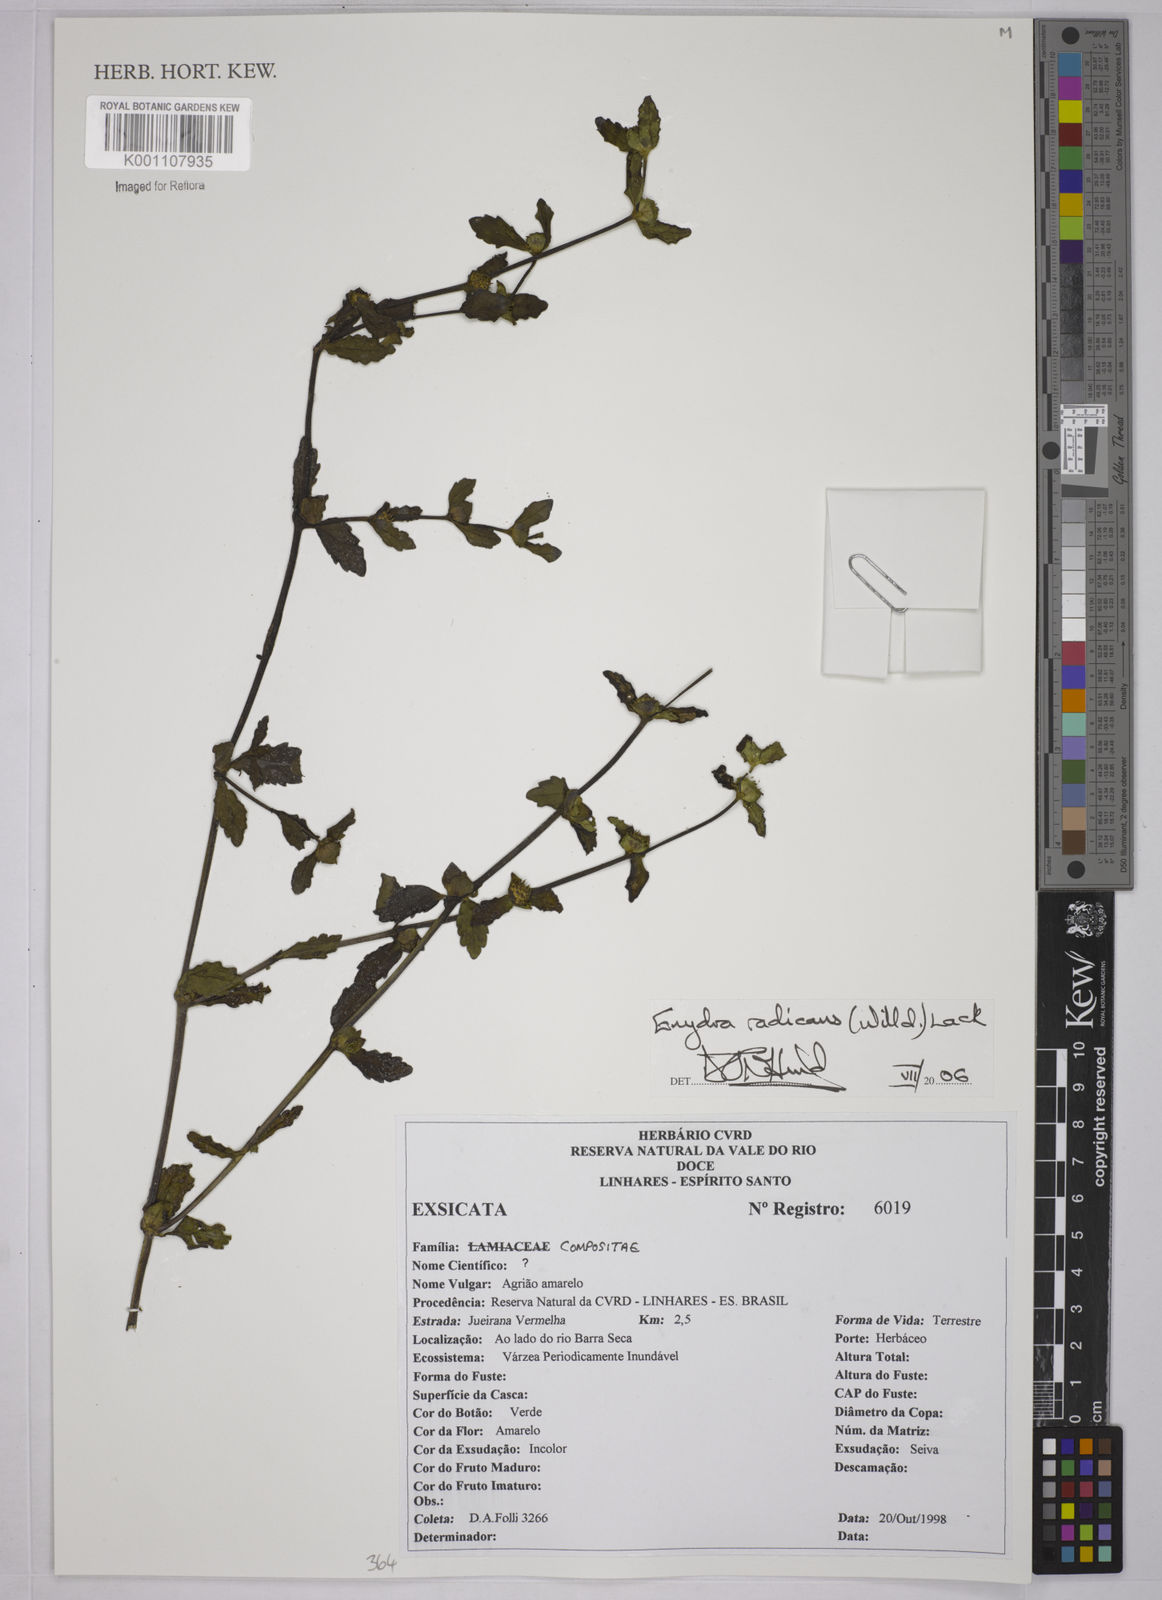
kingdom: Plantae
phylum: Tracheophyta
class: Magnoliopsida
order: Asterales
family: Asteraceae
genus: Enydra
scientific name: Enydra radicans
